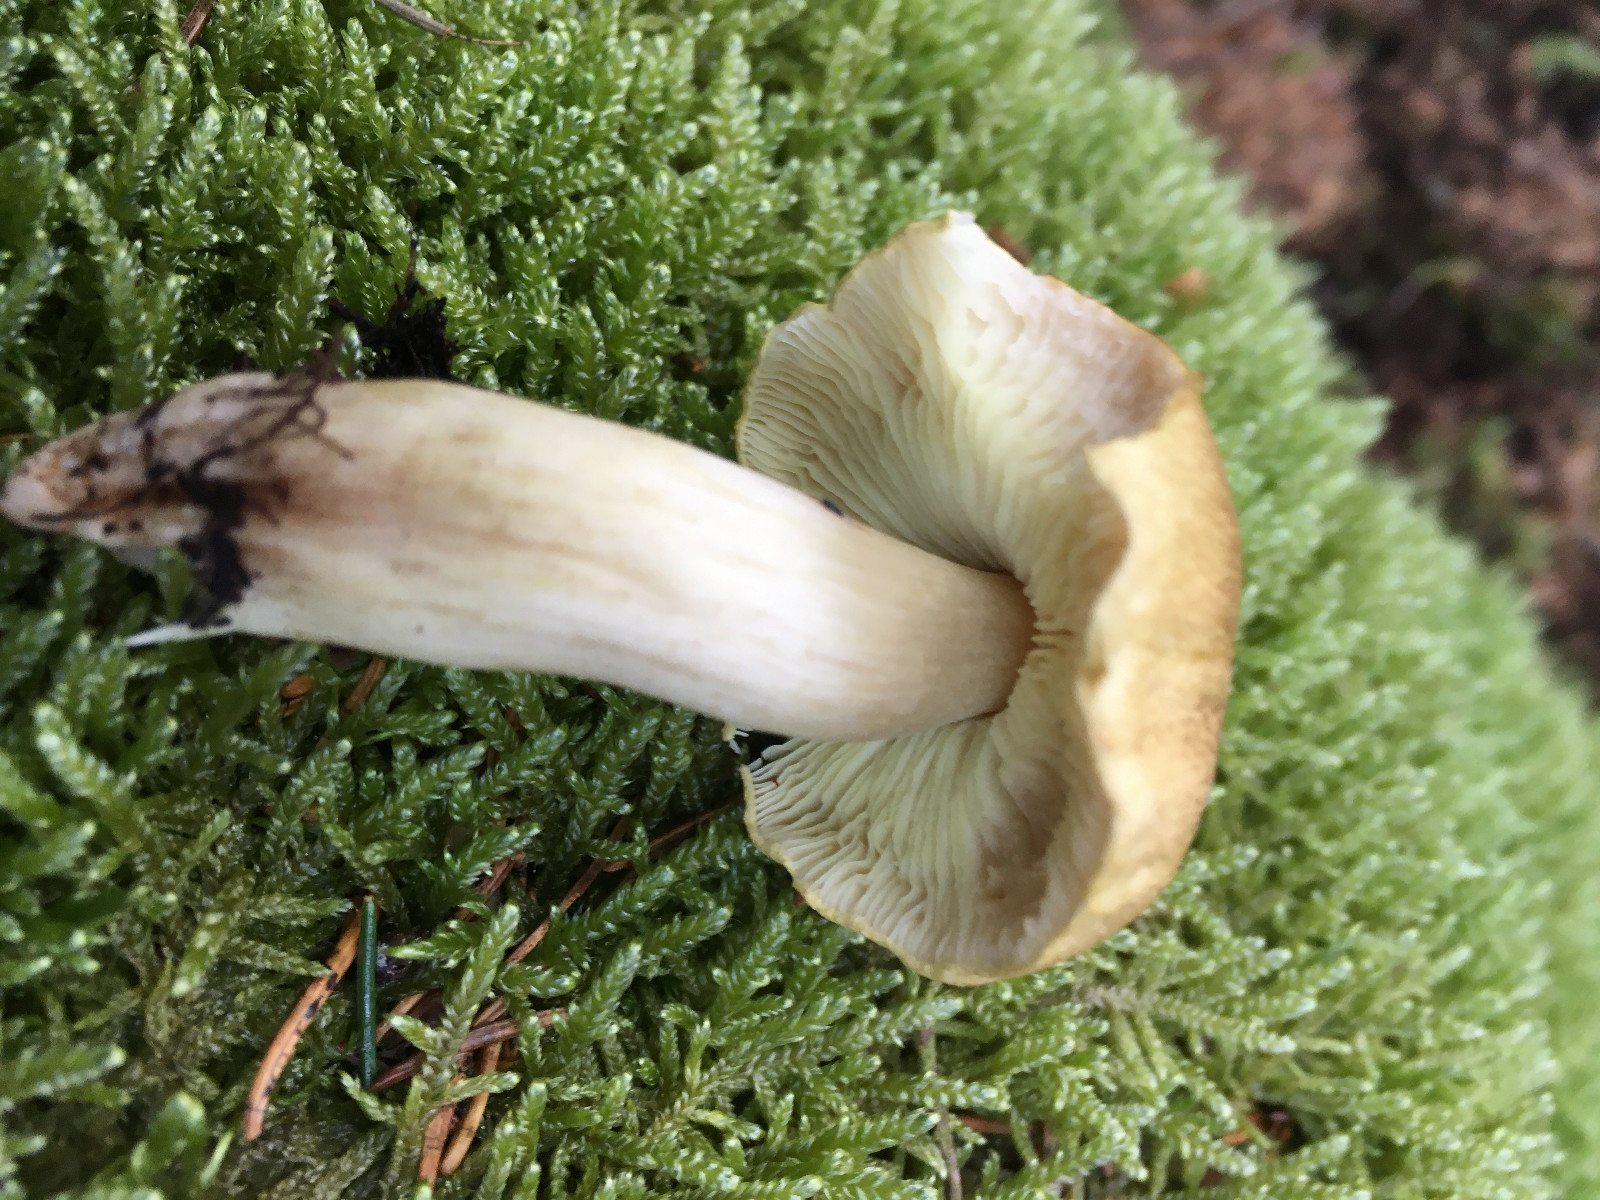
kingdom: Fungi
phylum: Basidiomycota
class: Agaricomycetes
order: Agaricales
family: Tricholomataceae
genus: Tricholoma
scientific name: Tricholoma aestuans
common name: kegle-ridderhat
